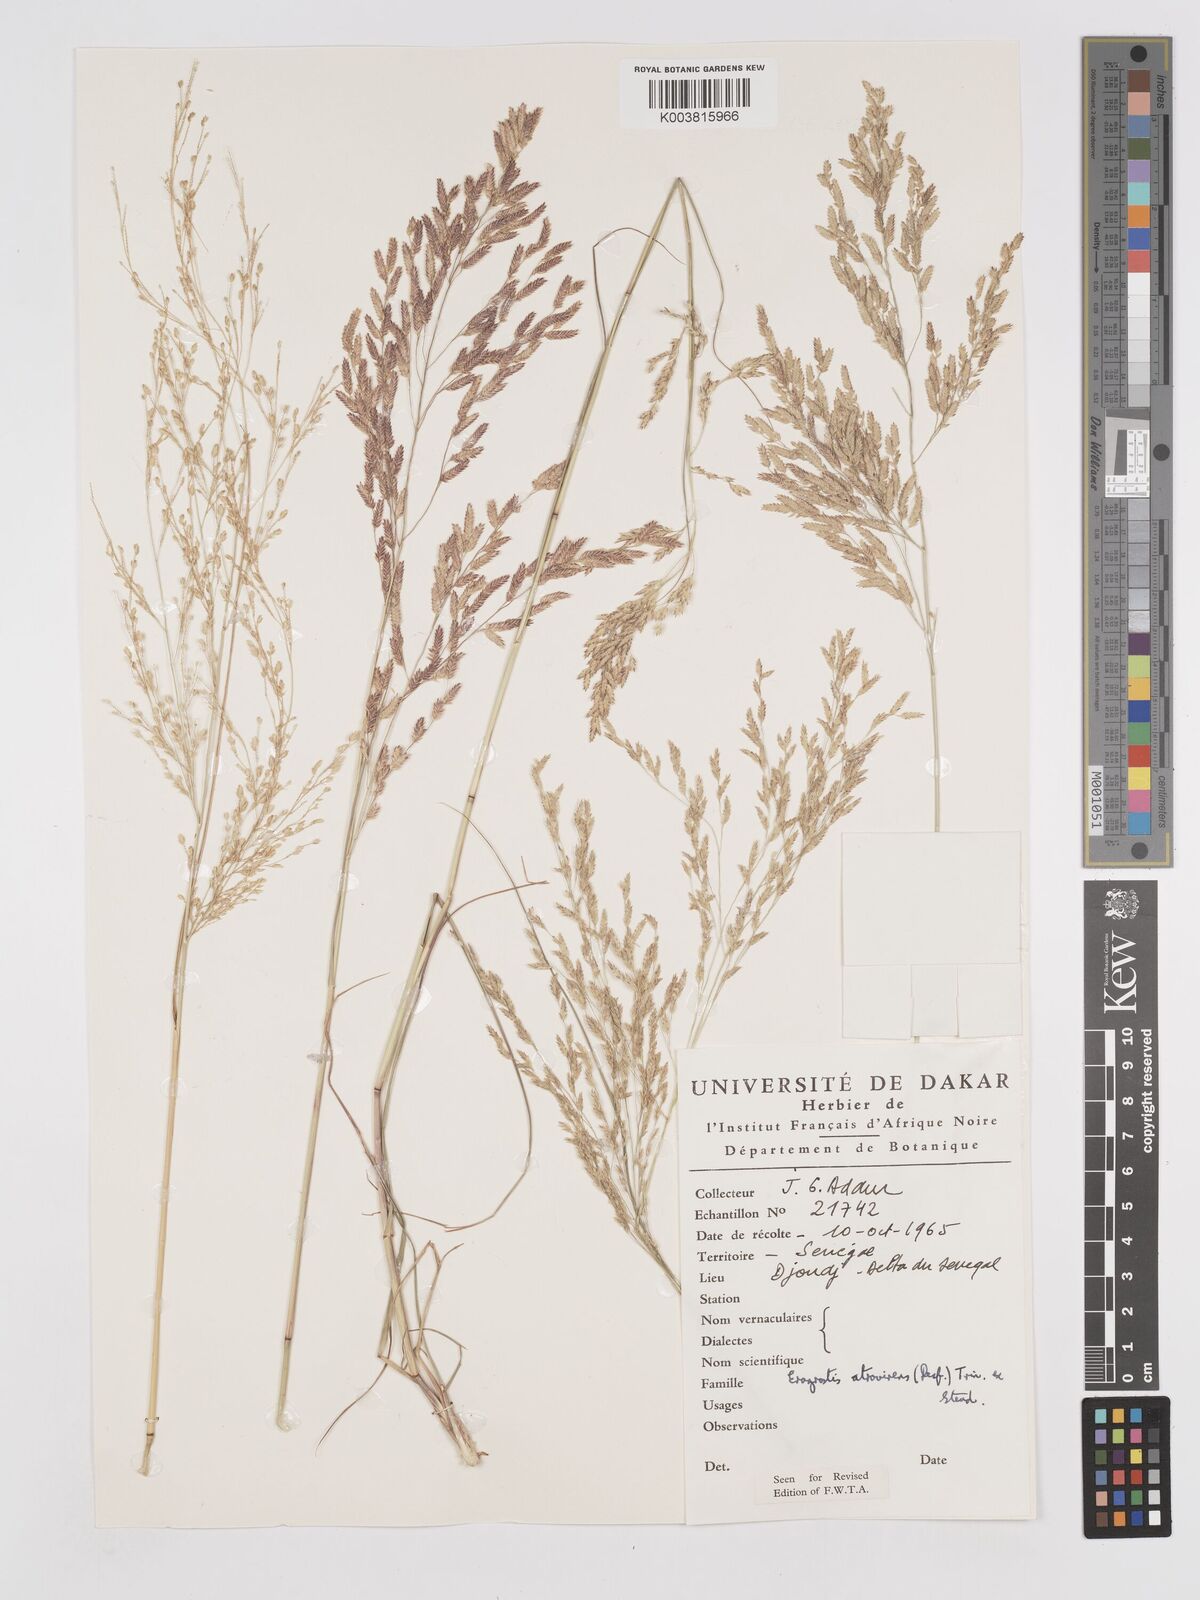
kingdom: Plantae
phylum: Tracheophyta
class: Liliopsida
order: Poales
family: Poaceae
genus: Eragrostis
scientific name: Eragrostis atrovirens
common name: Thalia lovegrass
